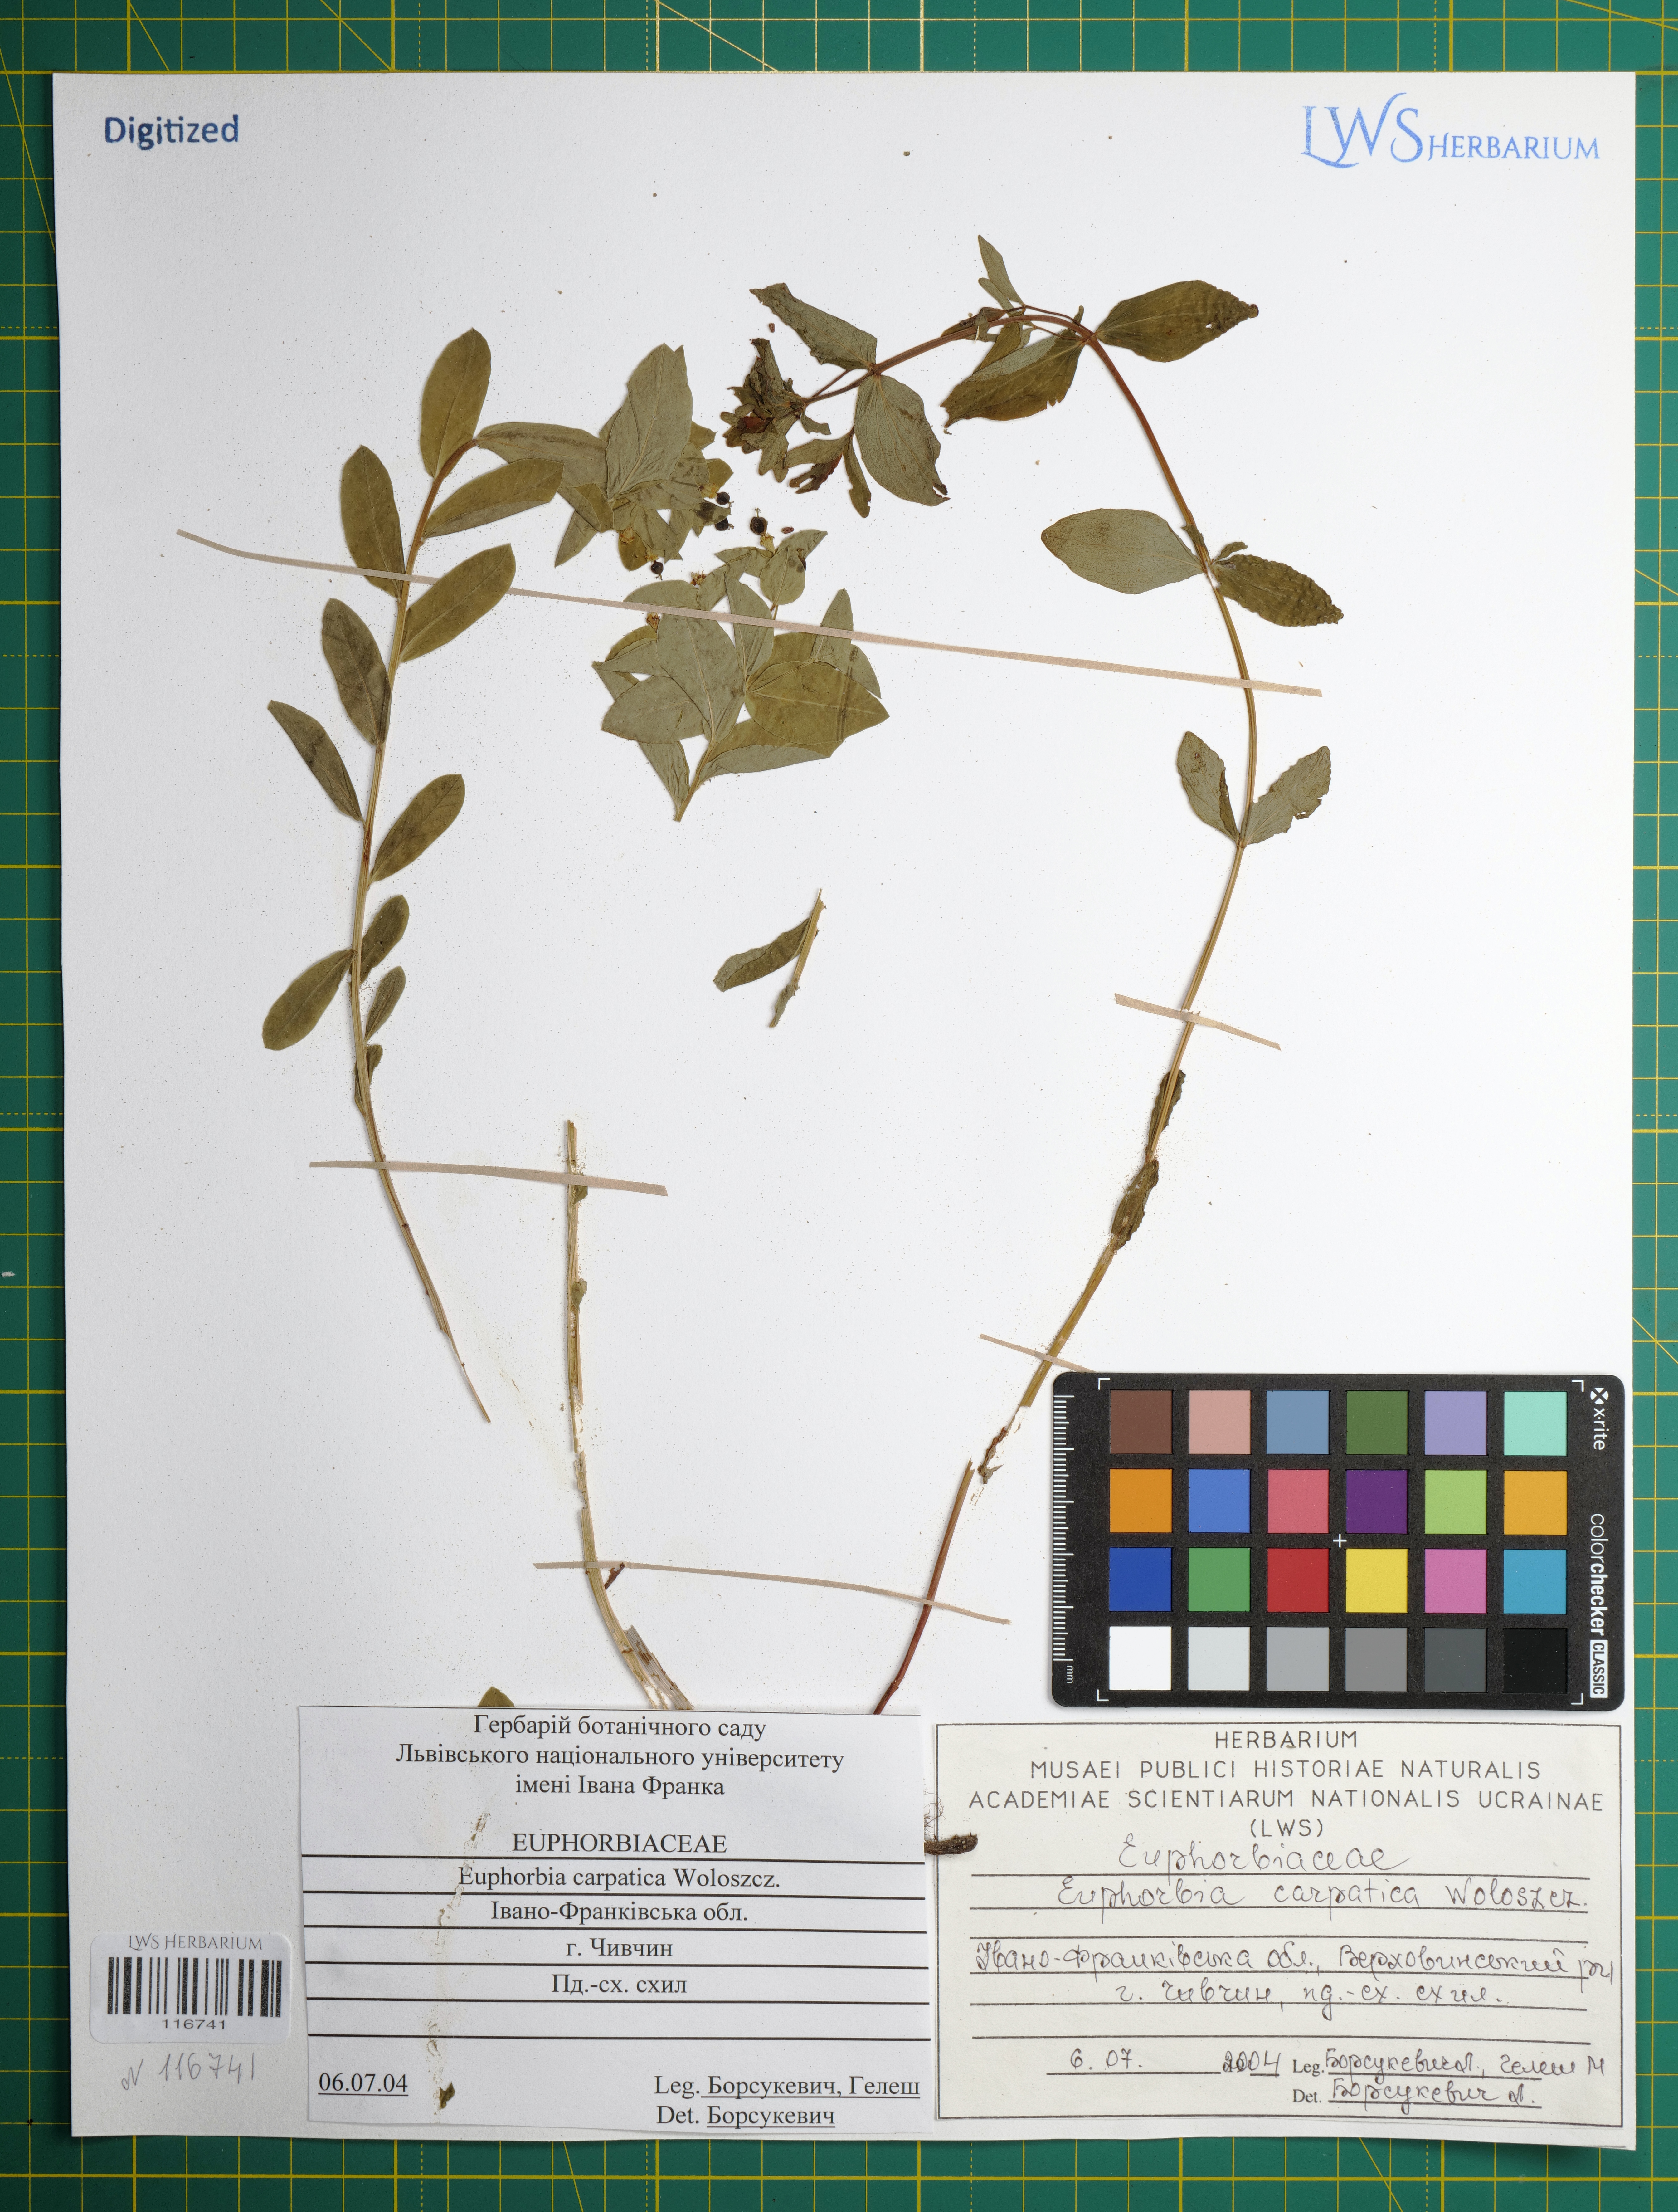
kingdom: Plantae
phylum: Tracheophyta
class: Magnoliopsida
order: Malpighiales
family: Euphorbiaceae
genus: Euphorbia
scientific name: Euphorbia carpatica
